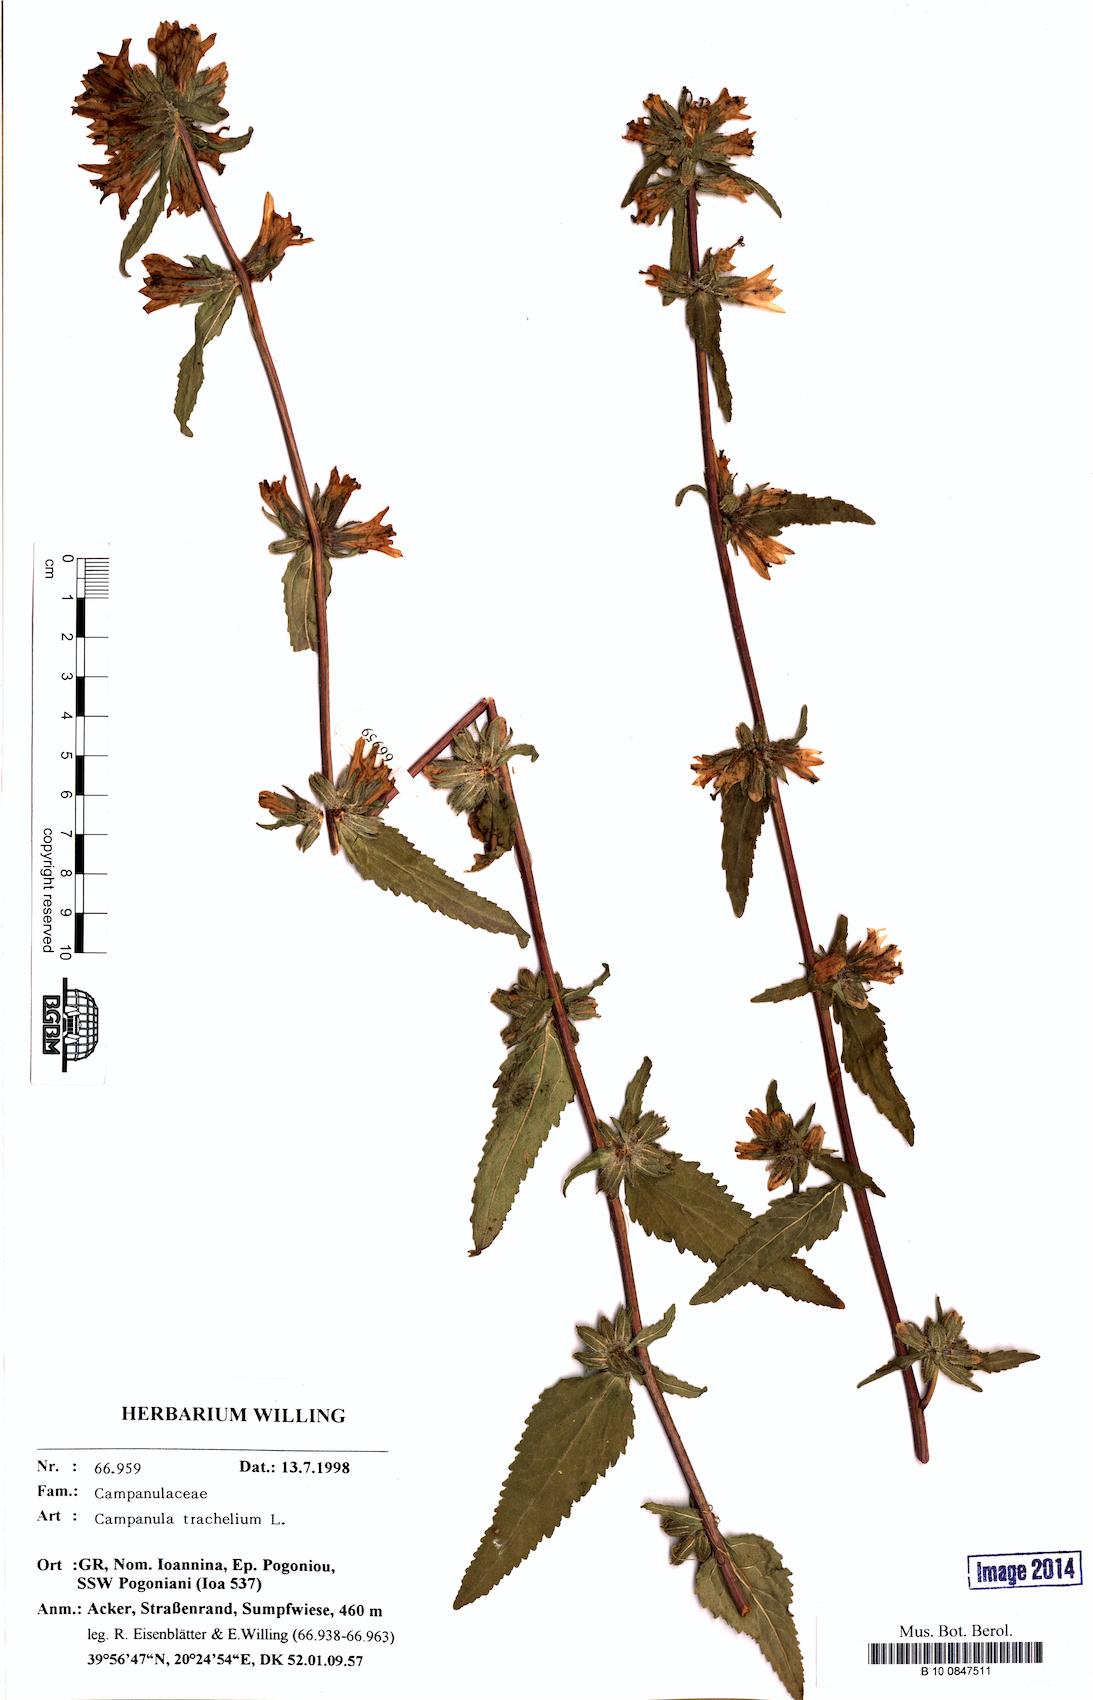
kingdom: Plantae
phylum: Tracheophyta
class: Magnoliopsida
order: Asterales
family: Campanulaceae
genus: Campanula
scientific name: Campanula trachelium
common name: Nettle-leaved bellflower
